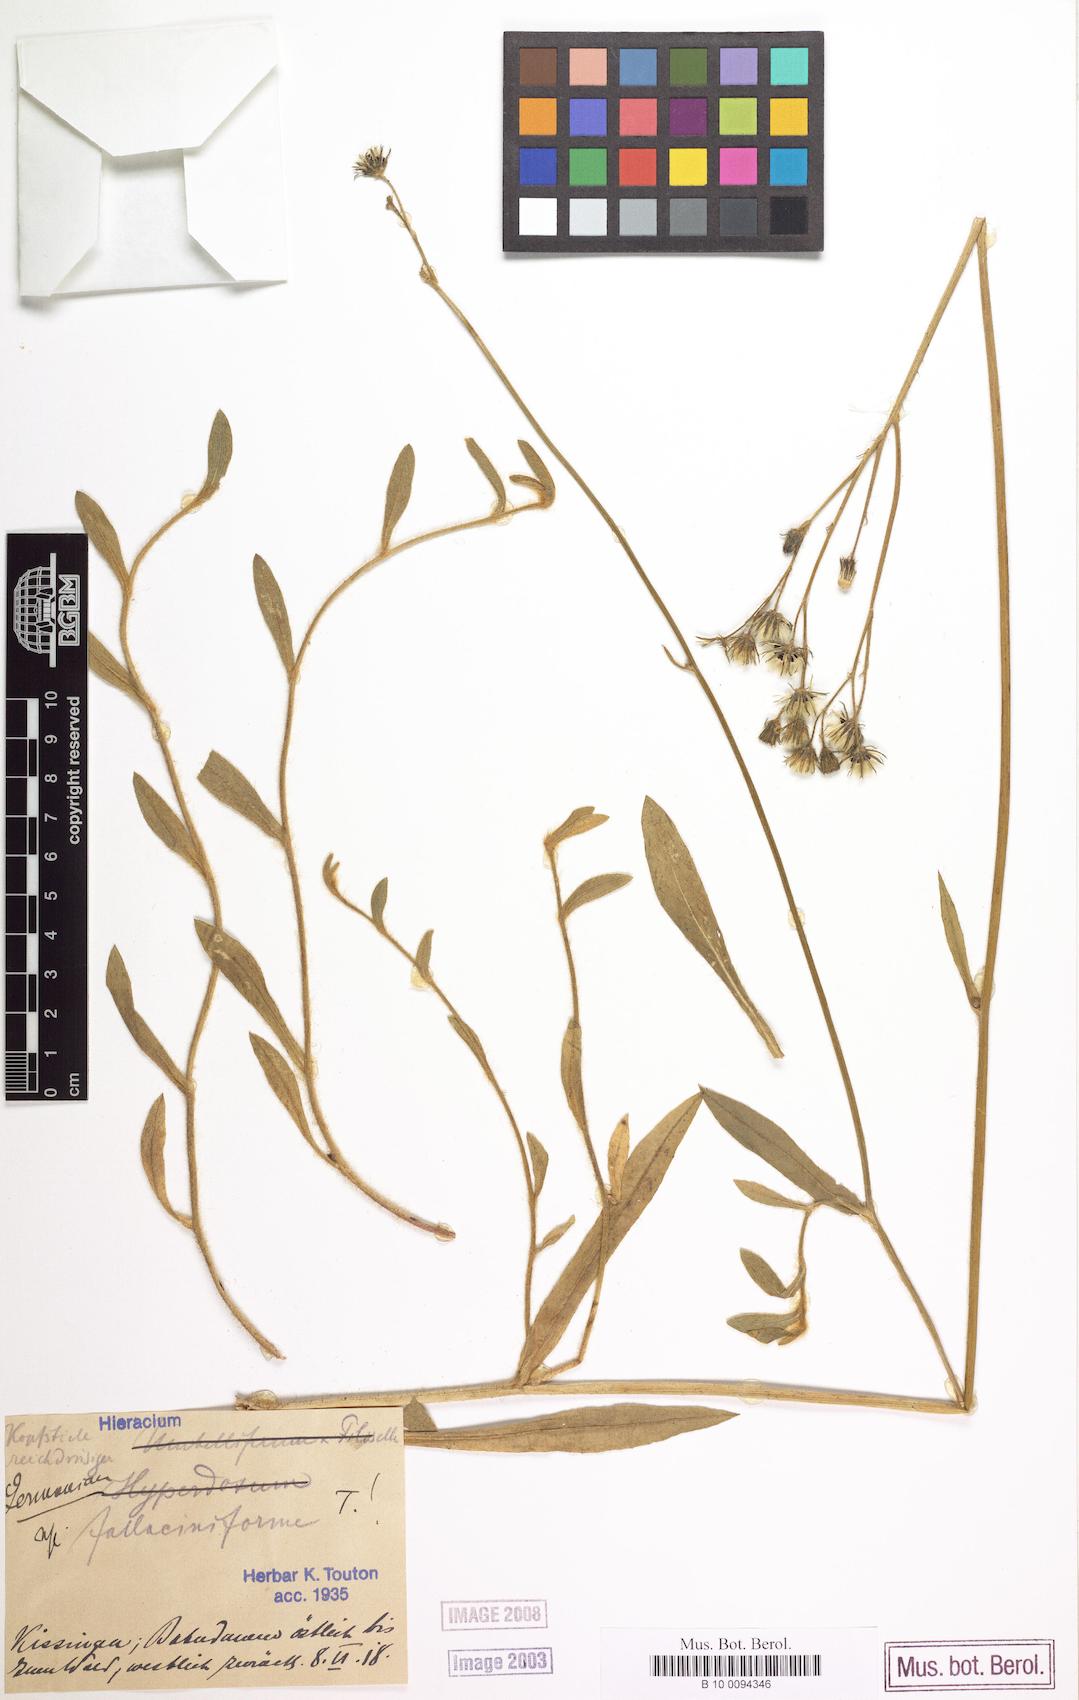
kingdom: Plantae
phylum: Tracheophyta
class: Magnoliopsida
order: Asterales
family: Asteraceae
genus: Pilosella
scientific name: Pilosella fallacina
